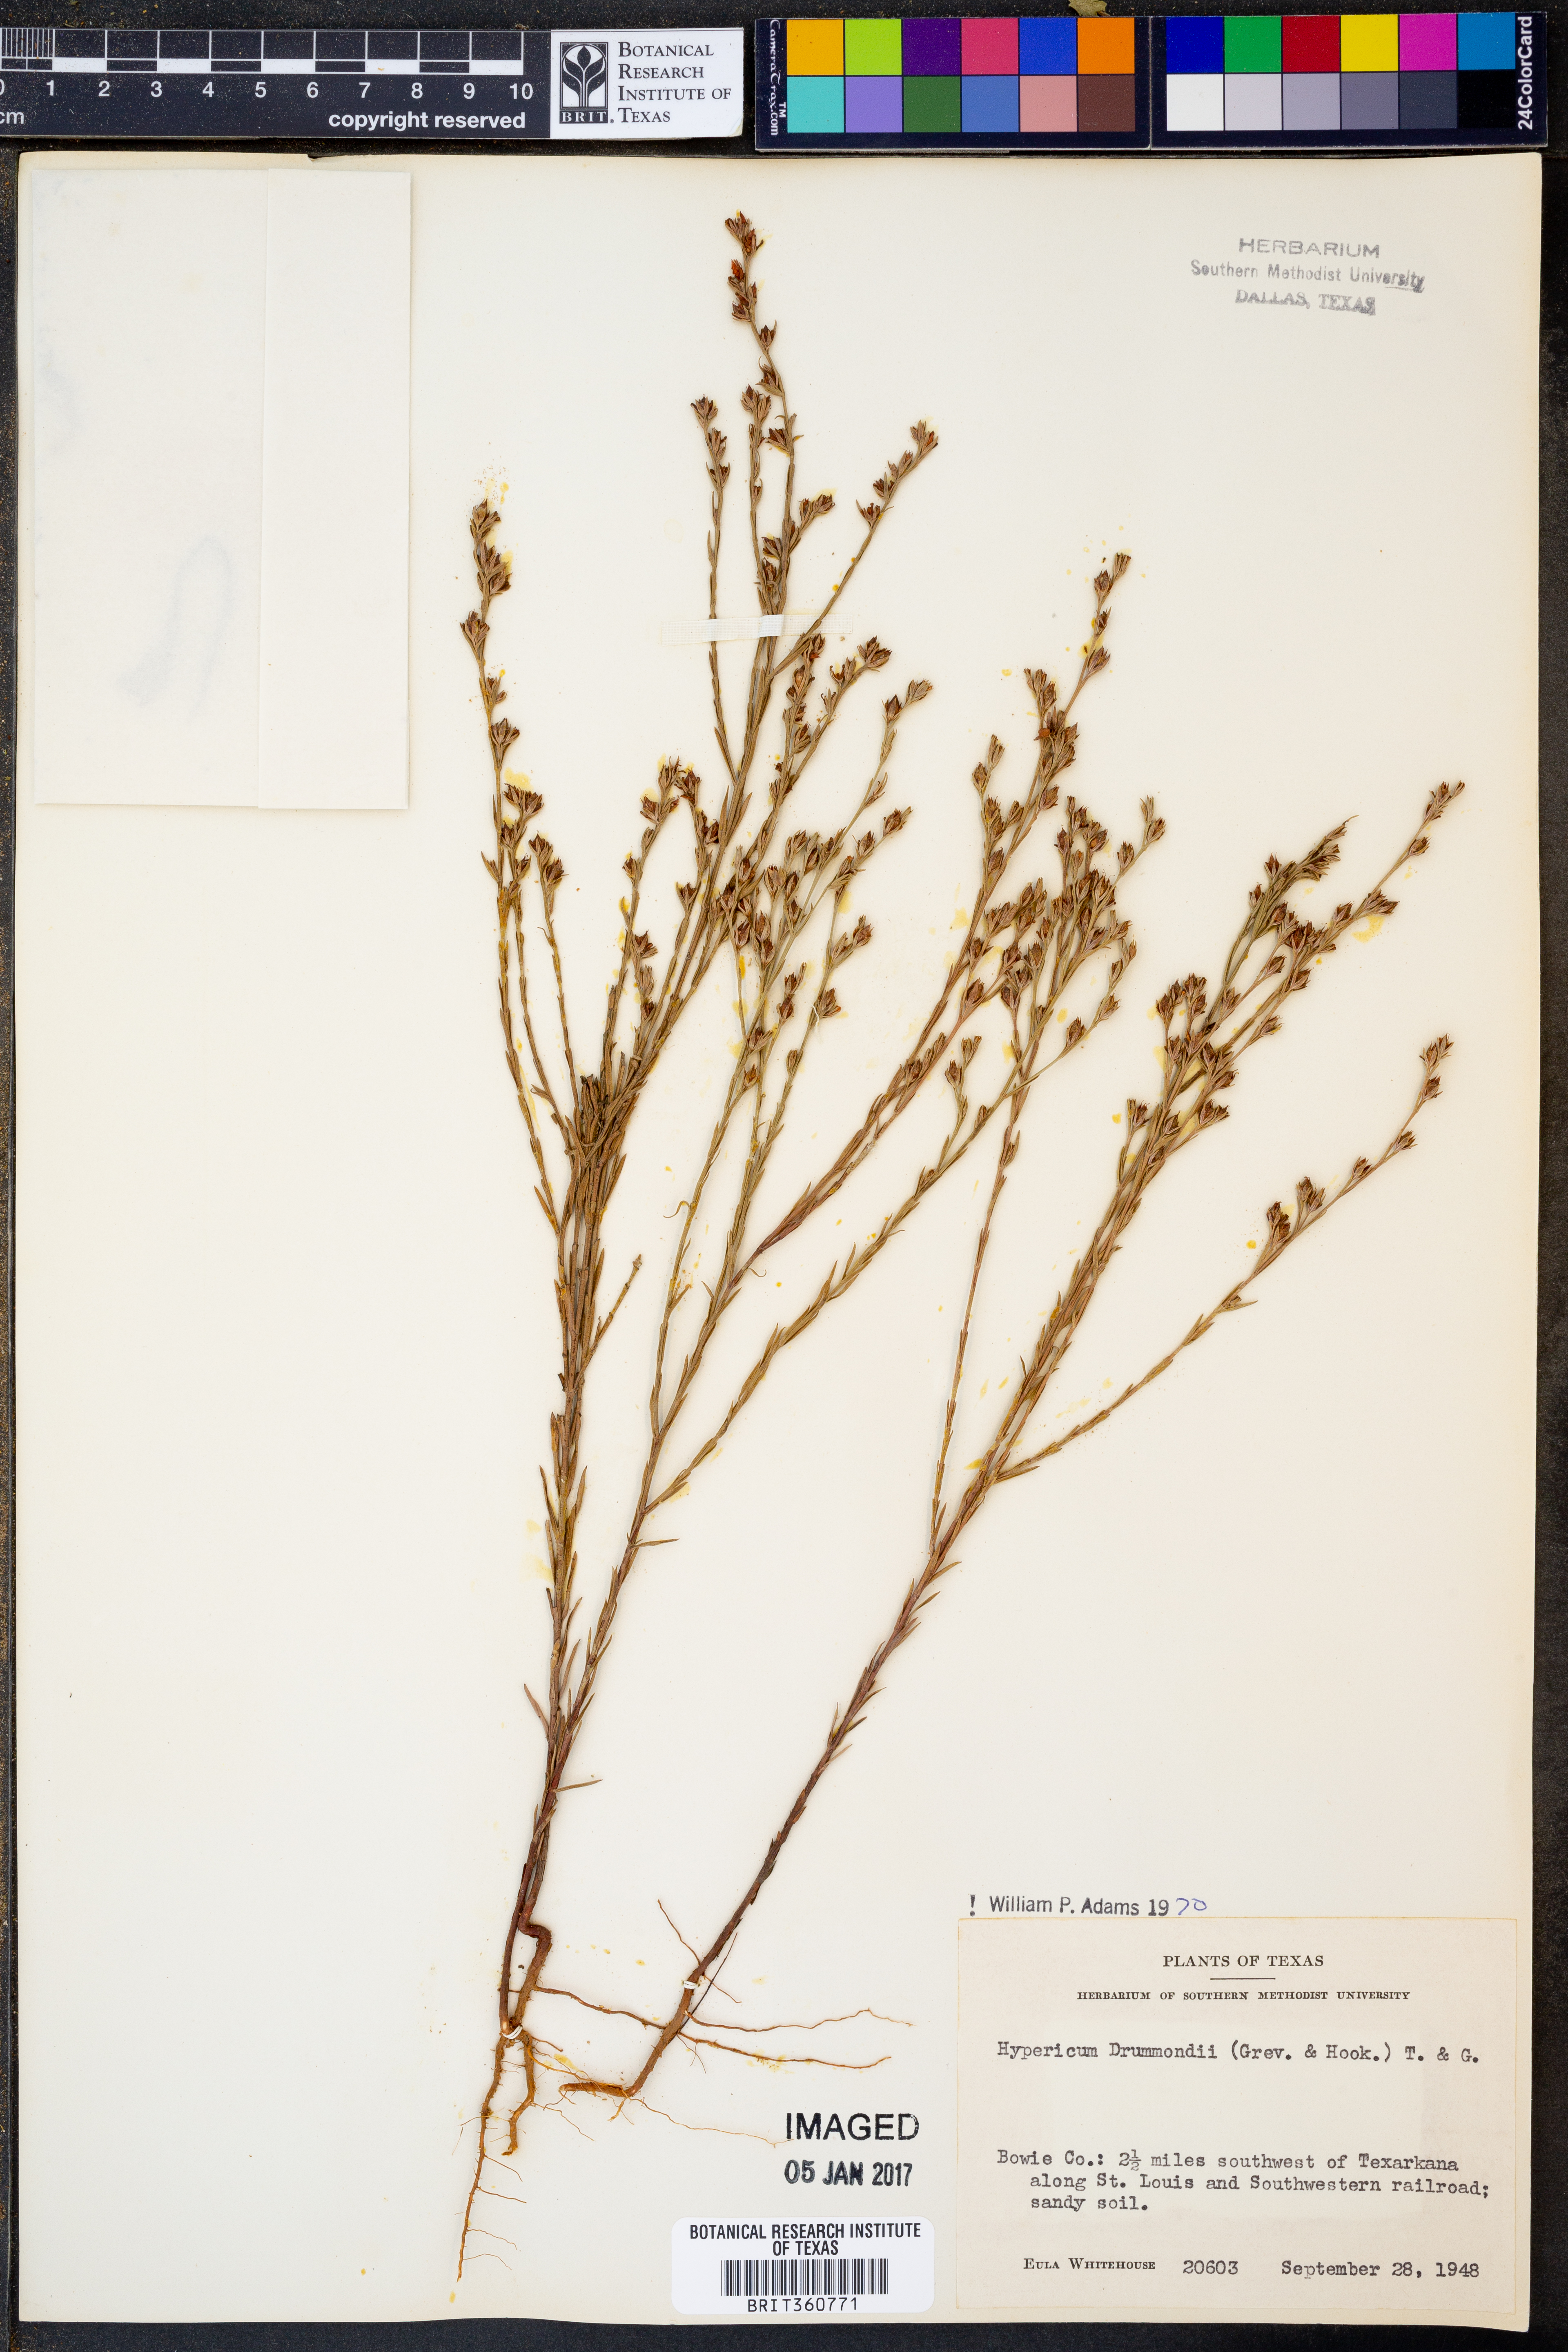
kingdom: Plantae
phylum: Tracheophyta
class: Magnoliopsida
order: Malpighiales
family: Hypericaceae
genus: Hypericum
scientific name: Hypericum drummondii
